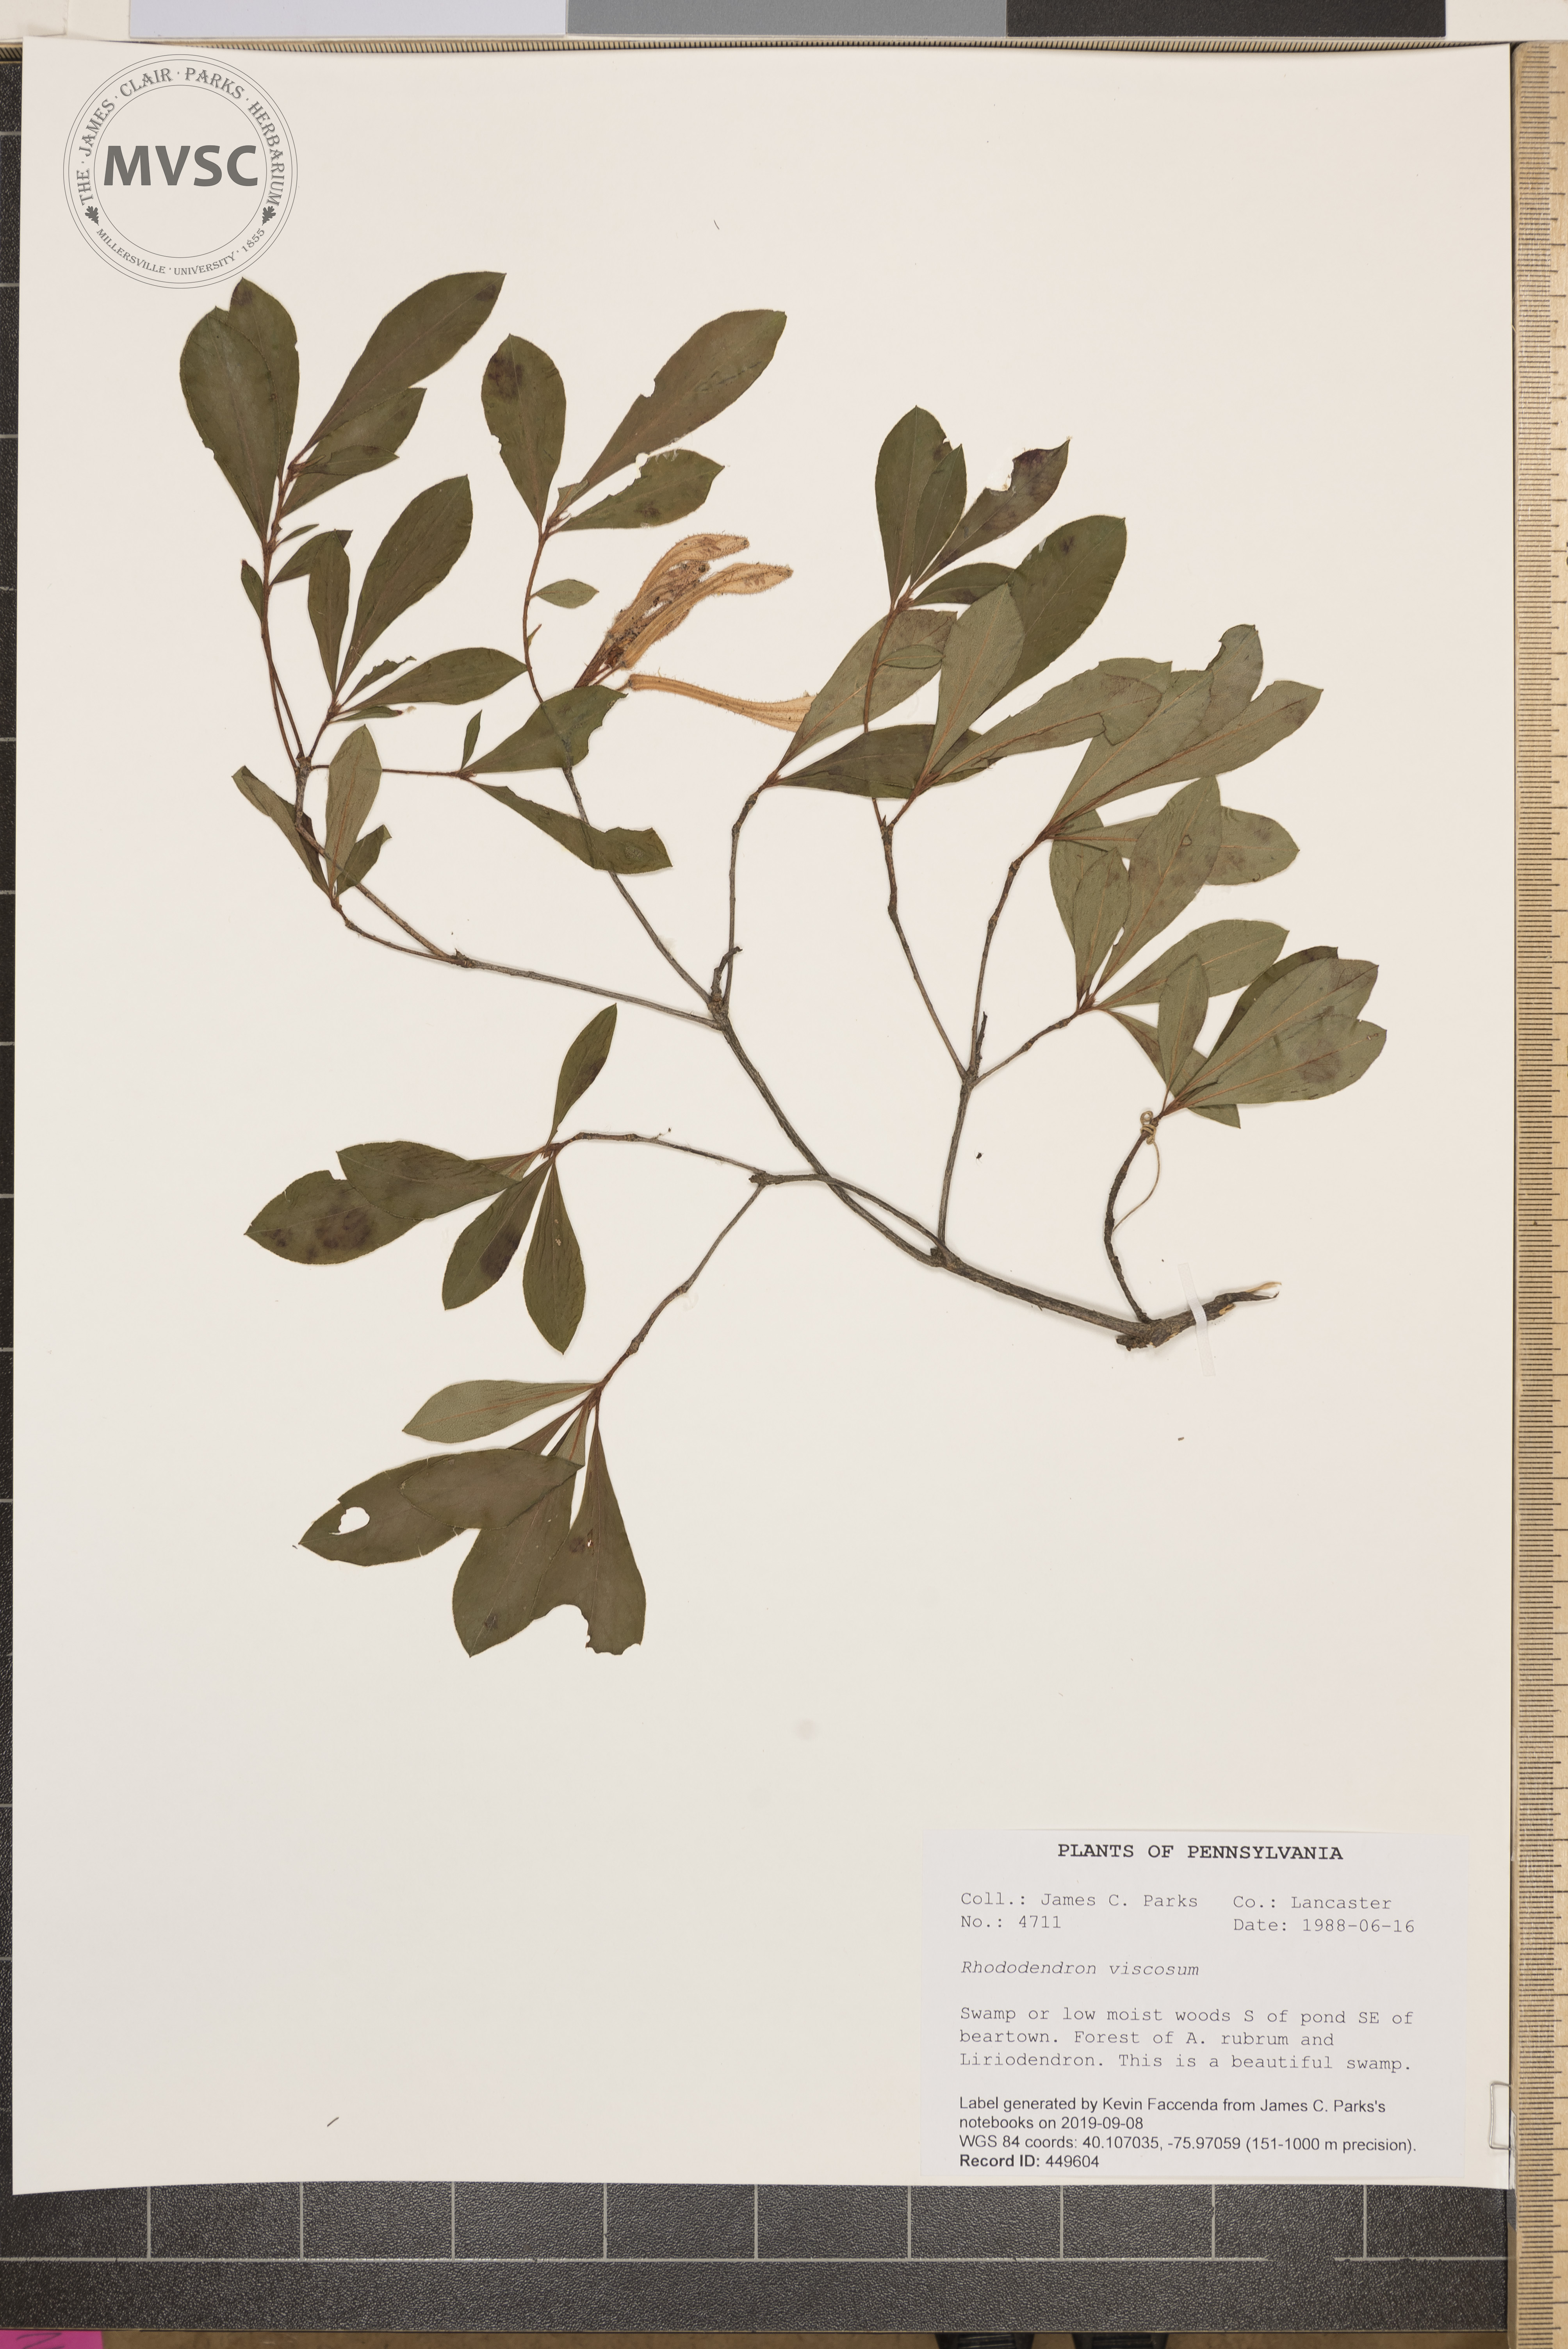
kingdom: Plantae
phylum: Tracheophyta
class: Magnoliopsida
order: Ericales
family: Ericaceae
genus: Rhododendron
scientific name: Rhododendron viscosum
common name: Clammy azalea
